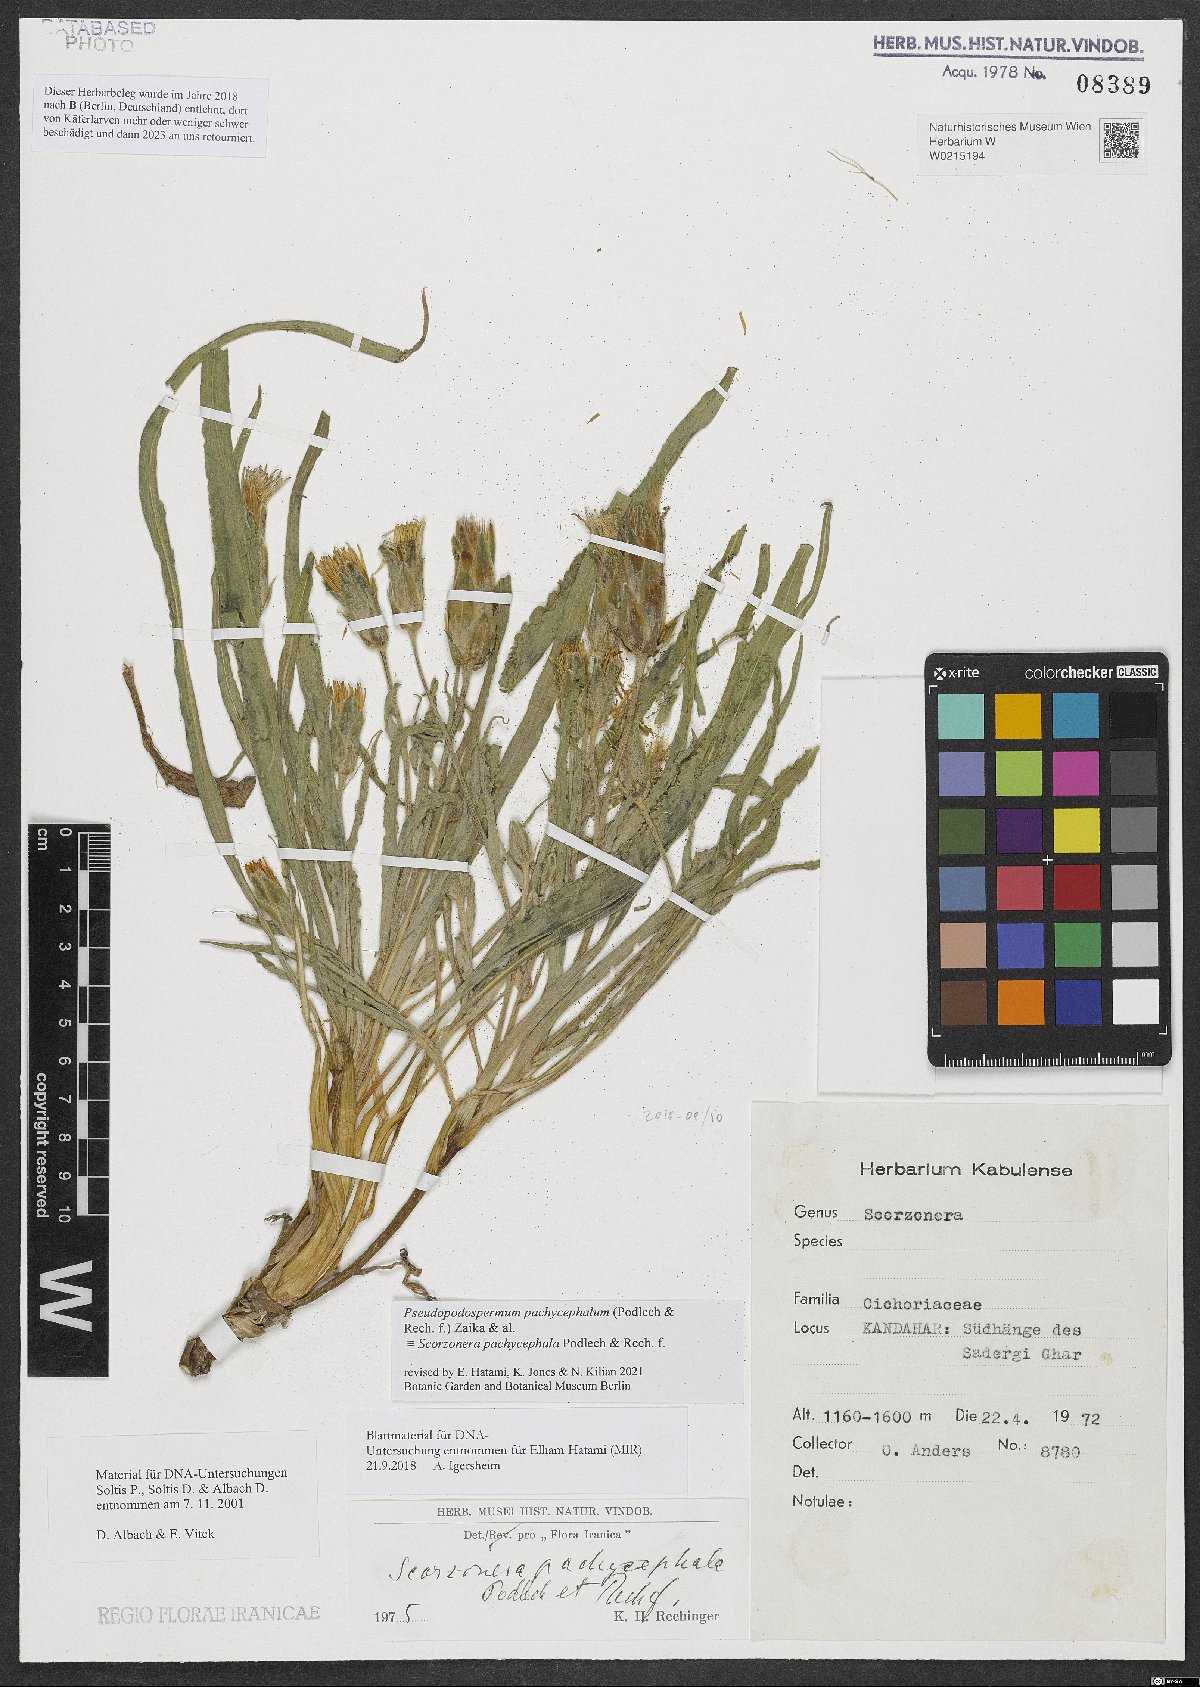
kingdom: Plantae
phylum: Tracheophyta
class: Magnoliopsida
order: Asterales
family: Asteraceae
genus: Pseudopodospermum
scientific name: Pseudopodospermum pachycephalum
